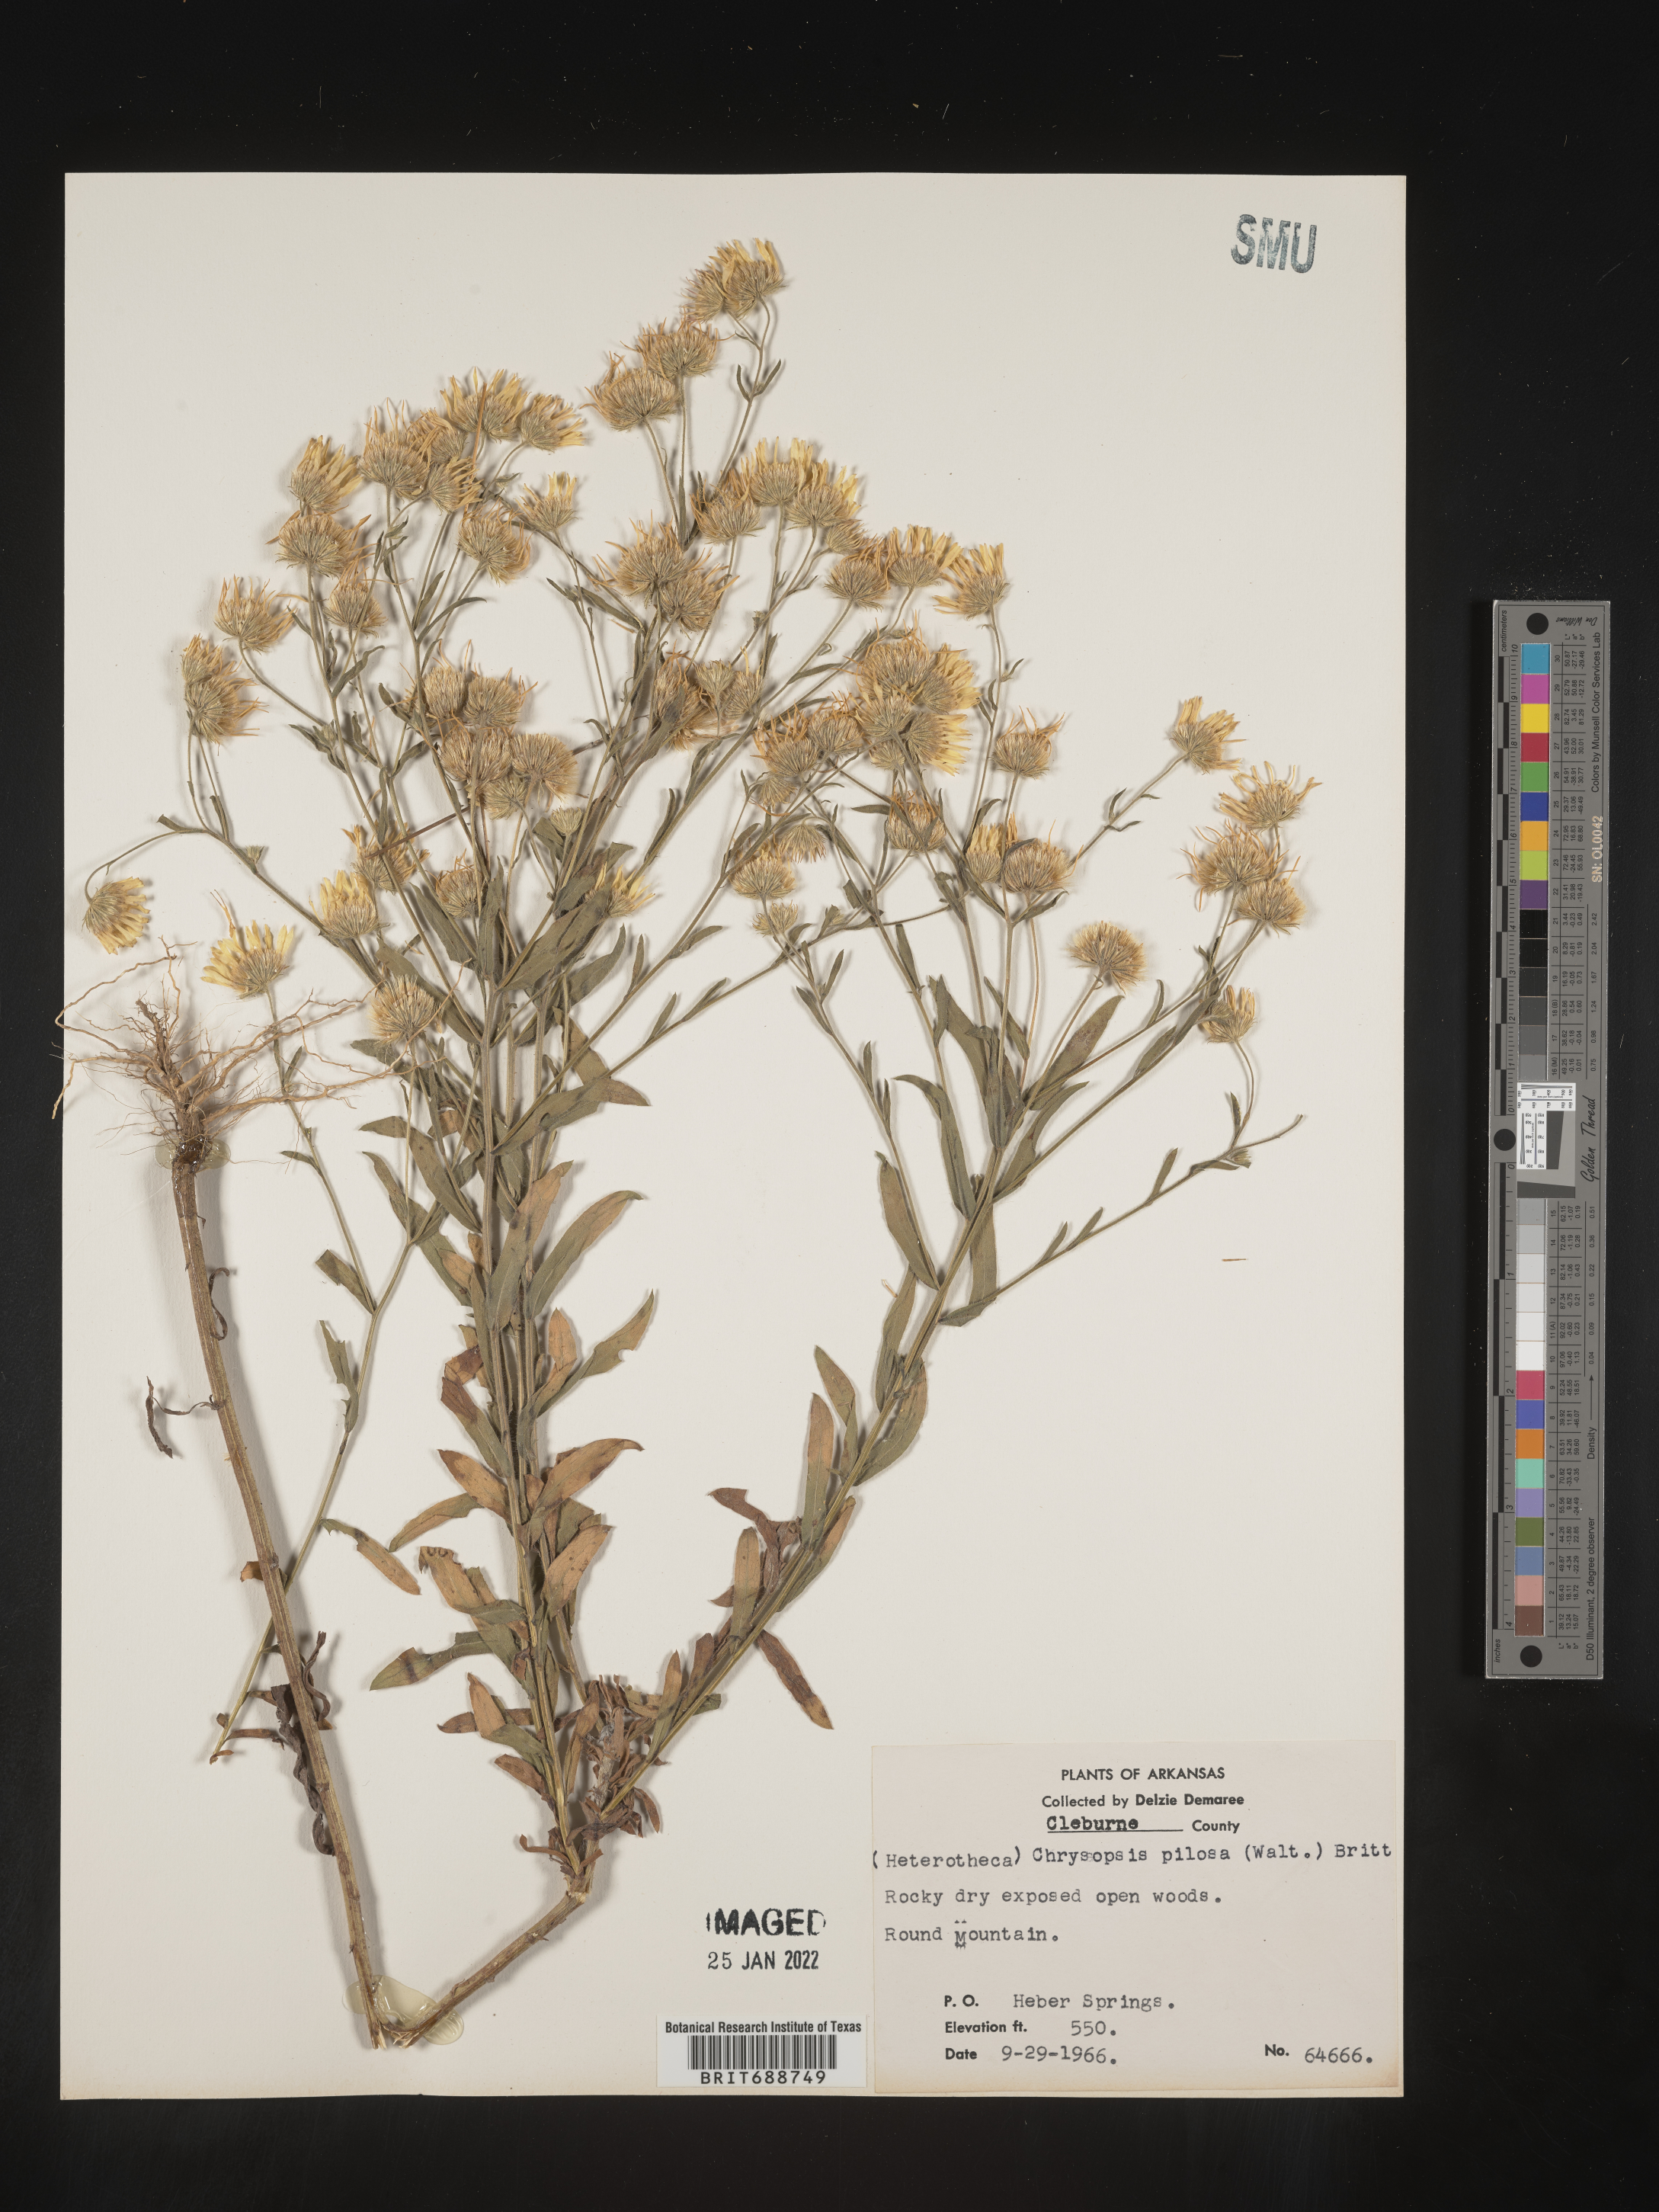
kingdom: Plantae
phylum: Tracheophyta
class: Magnoliopsida
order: Asterales
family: Asteraceae
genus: Bradburia
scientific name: Bradburia pilosa
